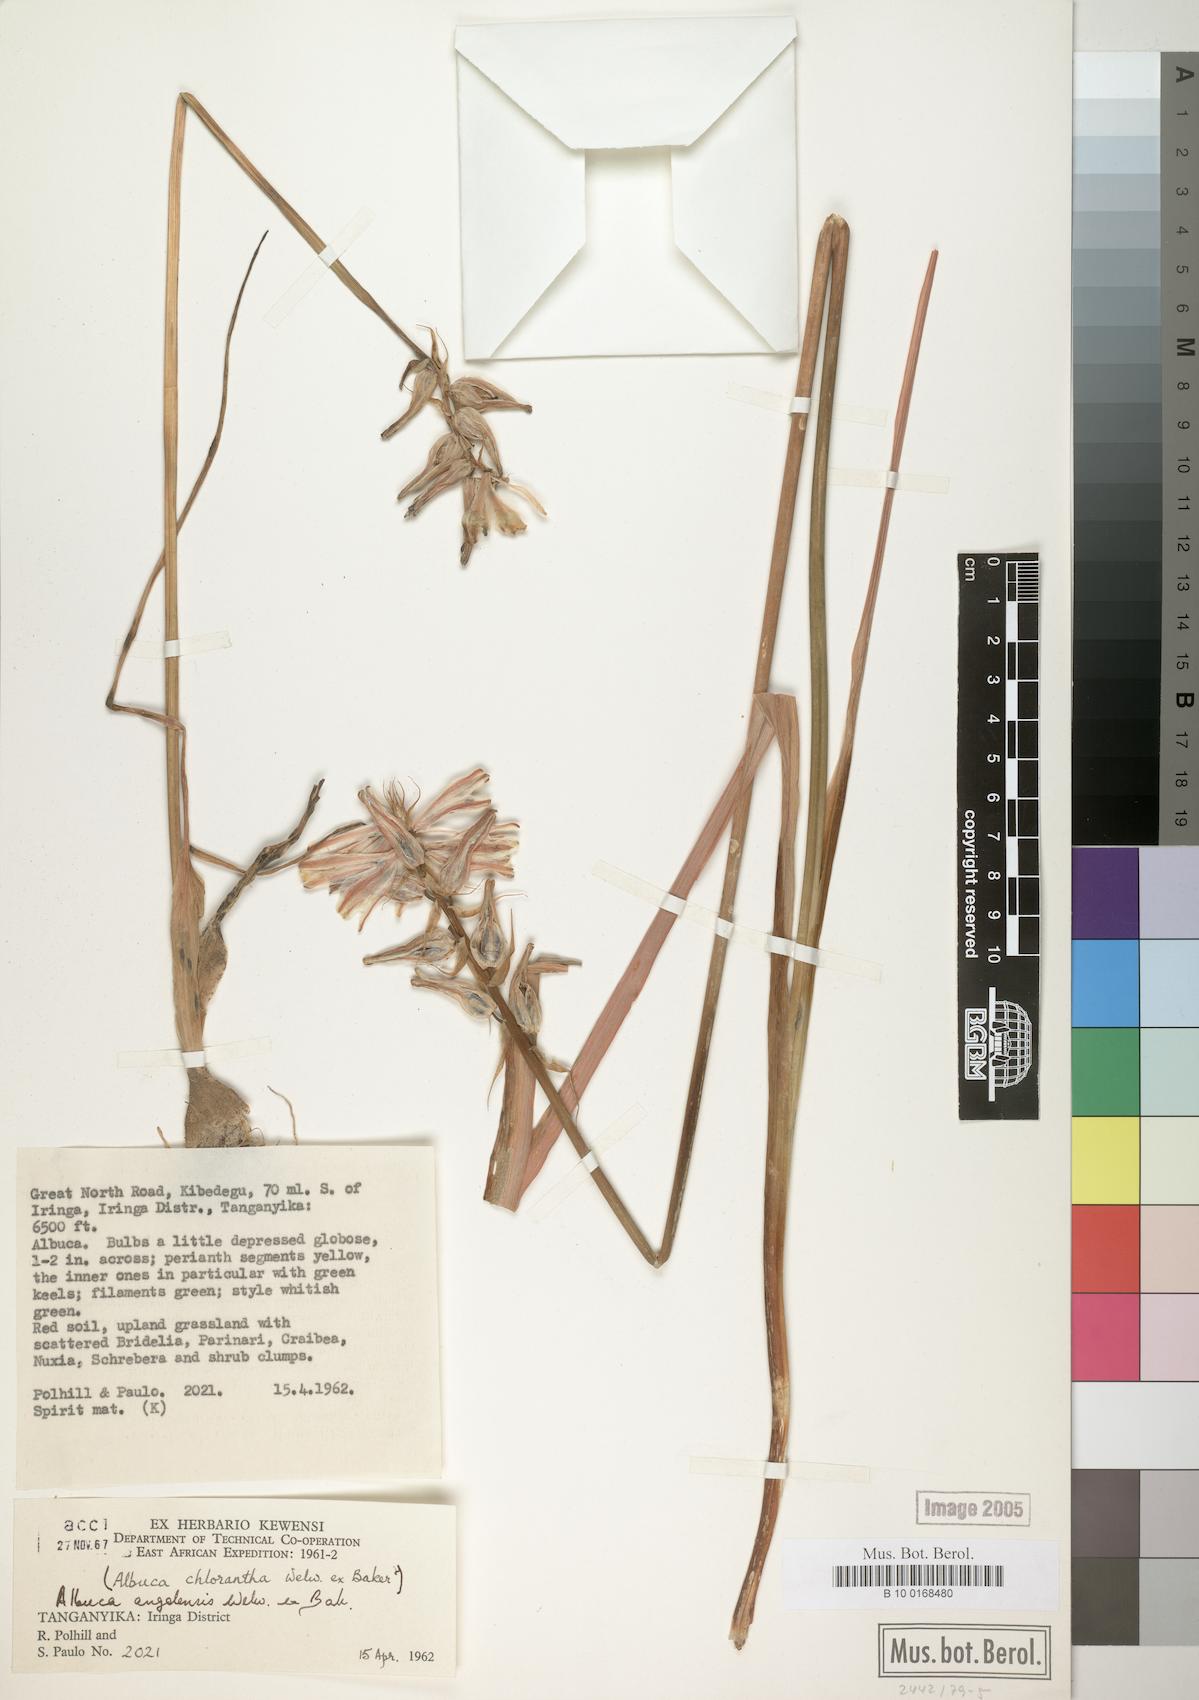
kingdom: Plantae
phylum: Tracheophyta
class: Liliopsida
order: Asparagales
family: Asparagaceae
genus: Albuca
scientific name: Albuca abyssinica
